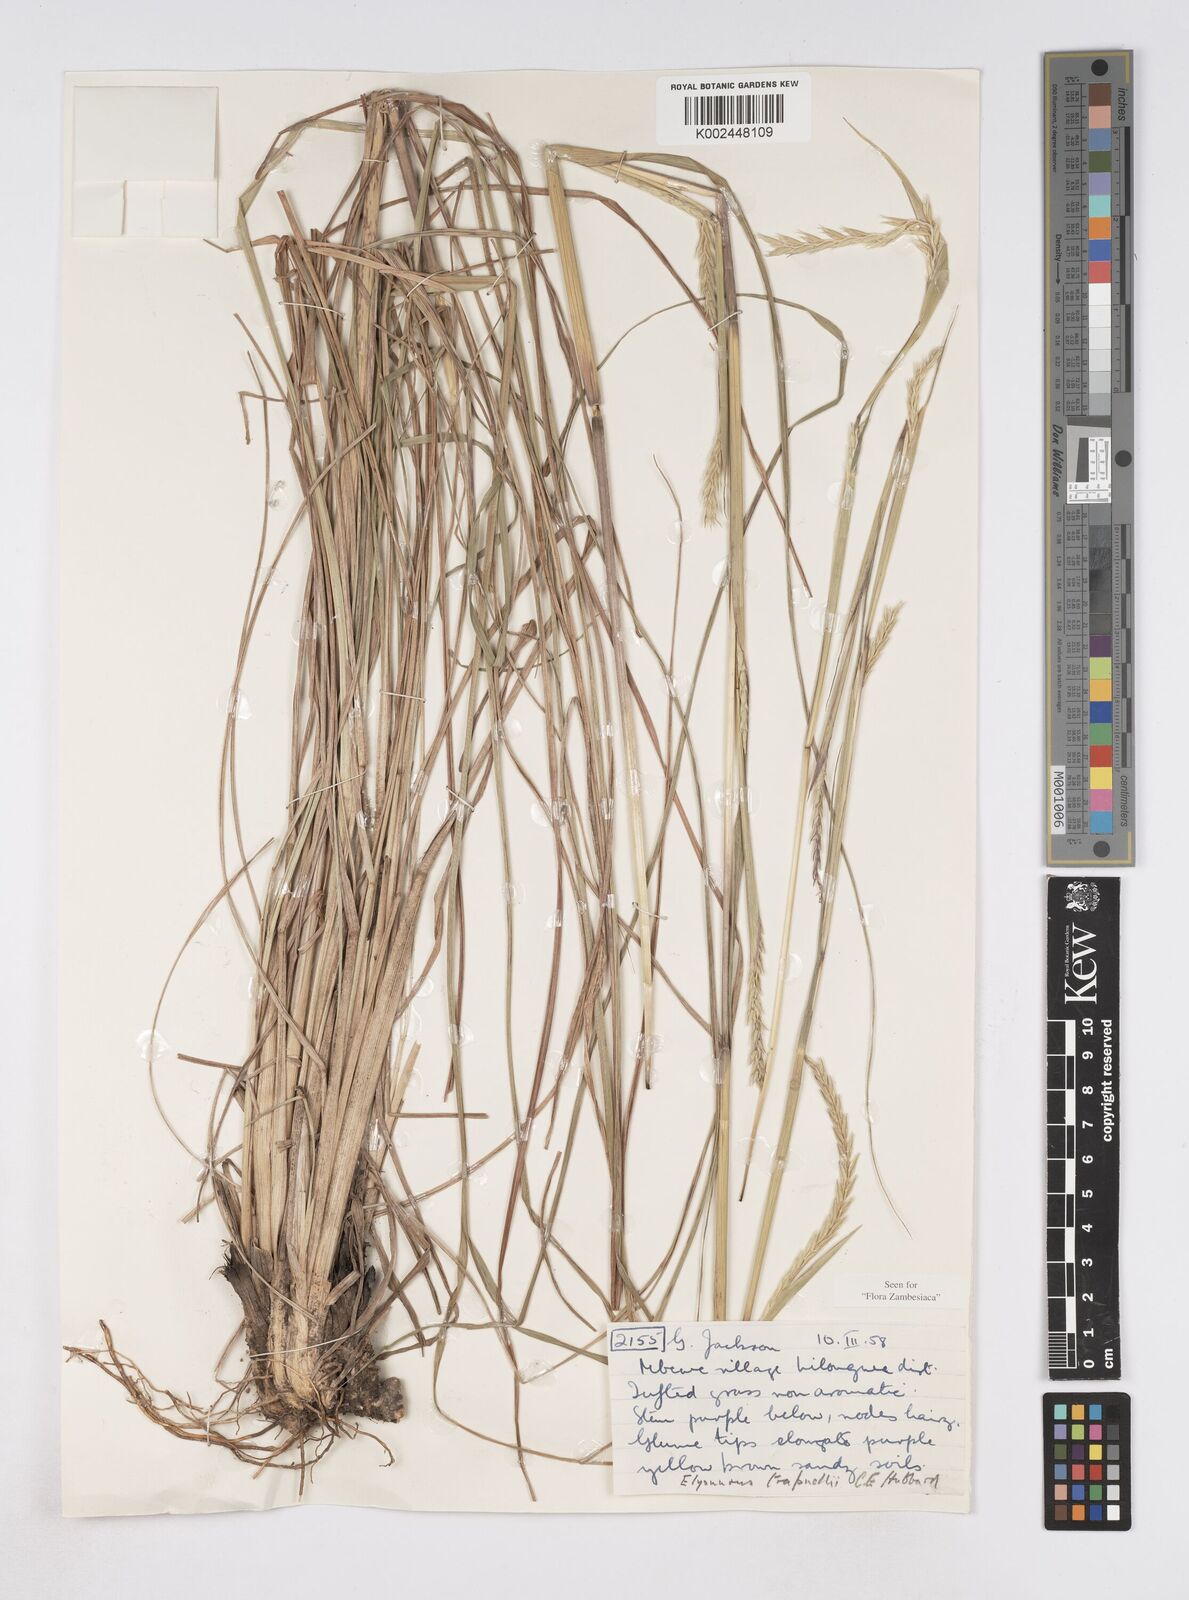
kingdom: Plantae
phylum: Tracheophyta
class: Liliopsida
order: Poales
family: Poaceae
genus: Elionurus
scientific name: Elionurus
